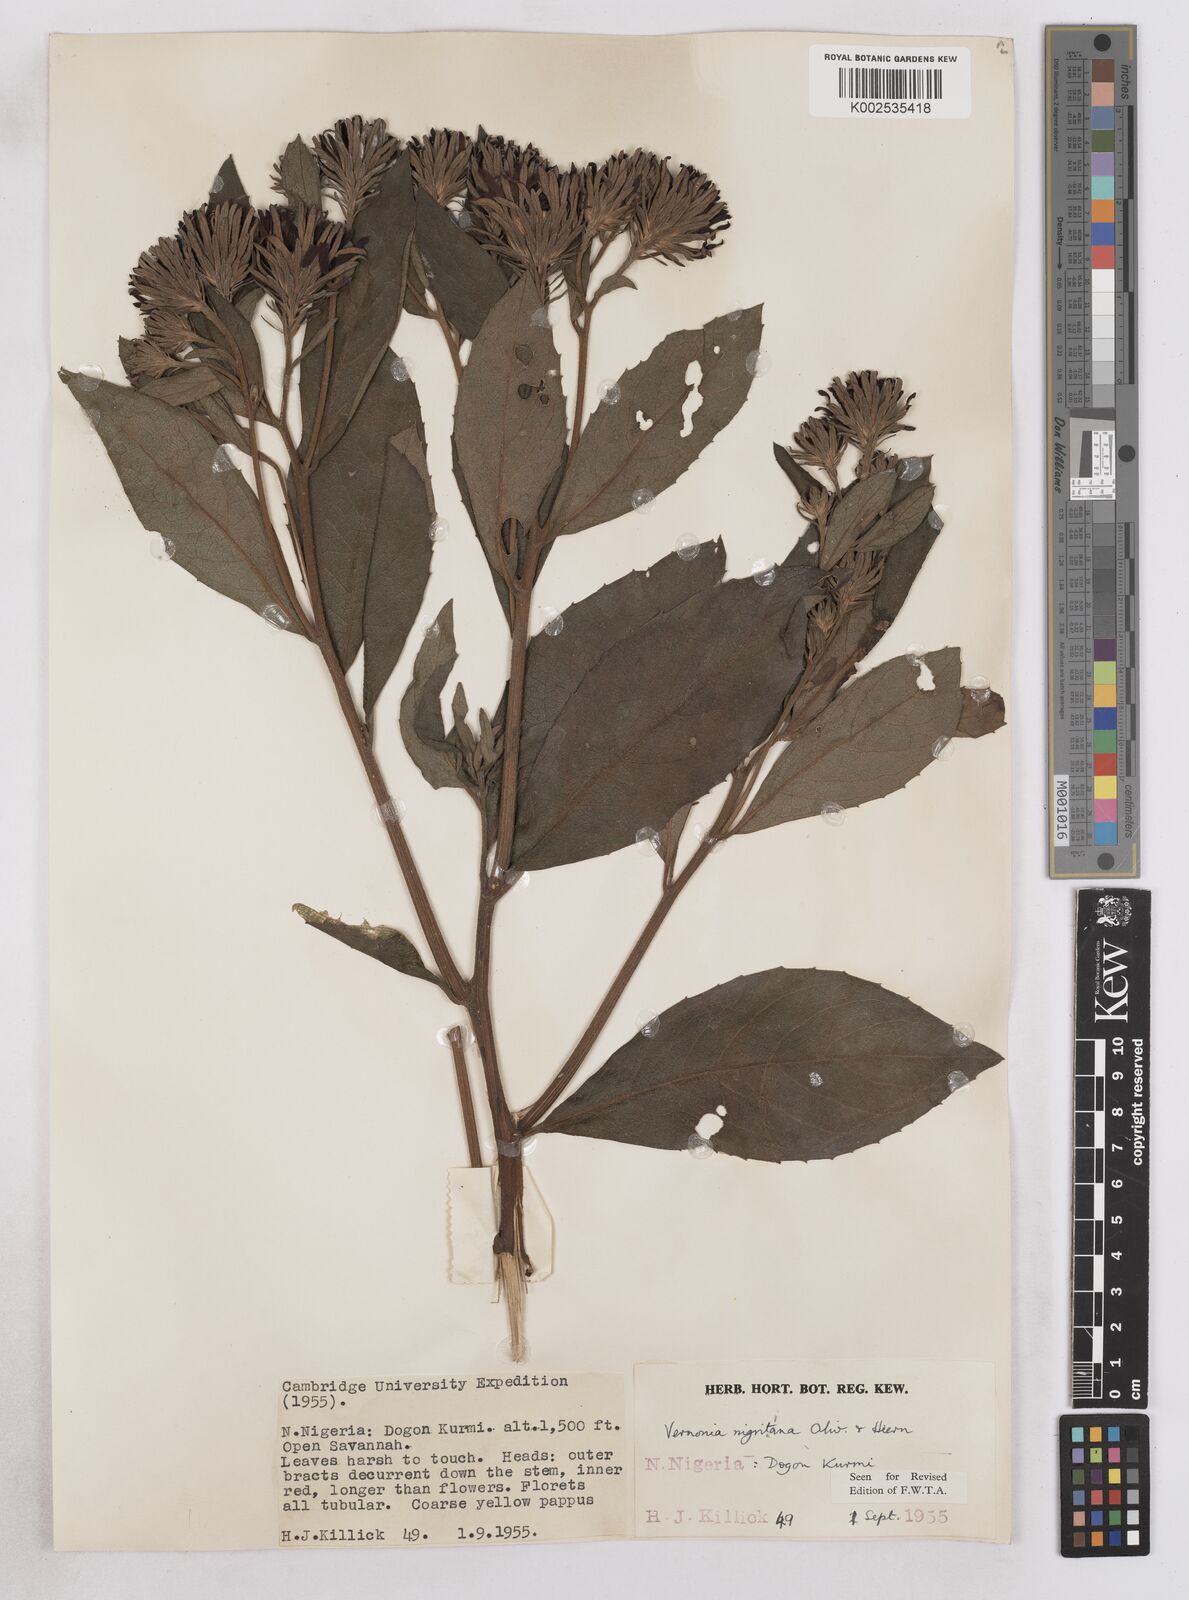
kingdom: Plantae
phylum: Tracheophyta
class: Magnoliopsida
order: Asterales
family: Asteraceae
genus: Linzia
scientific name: Linzia nigritiana
